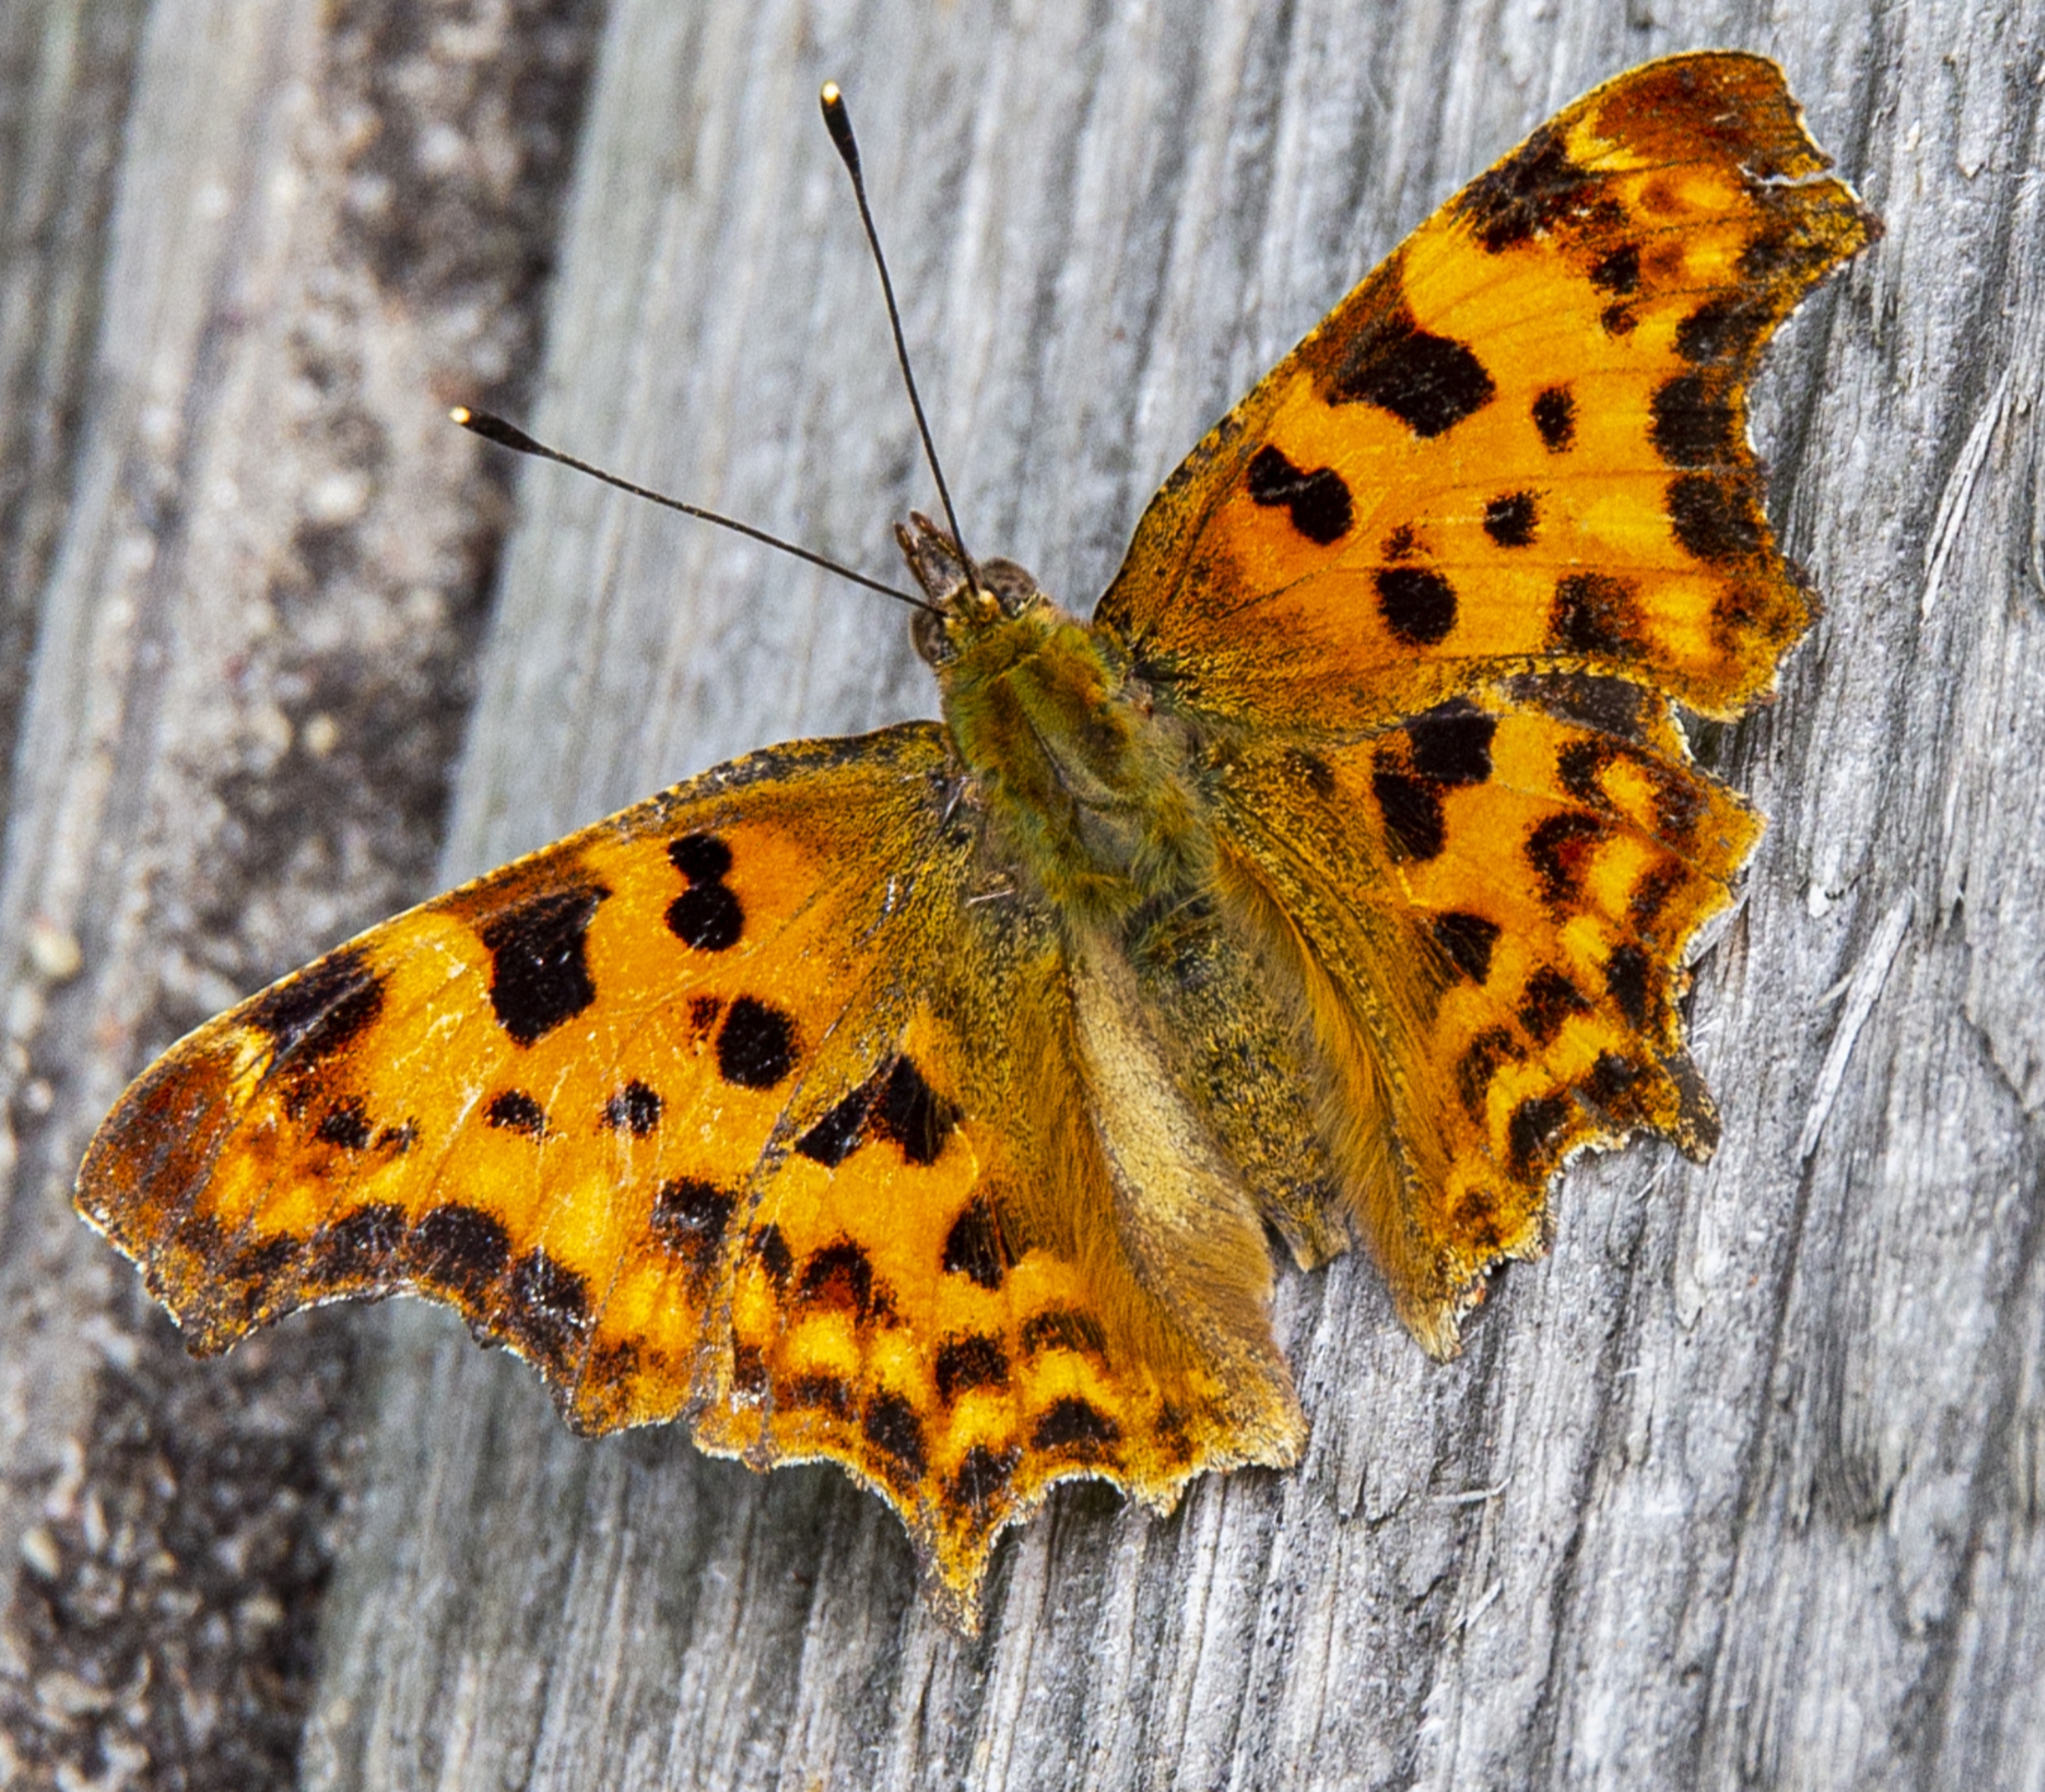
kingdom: Animalia
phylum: Arthropoda
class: Insecta
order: Lepidoptera
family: Nymphalidae
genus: Polygonia
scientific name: Polygonia c-album
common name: Det hvide C
